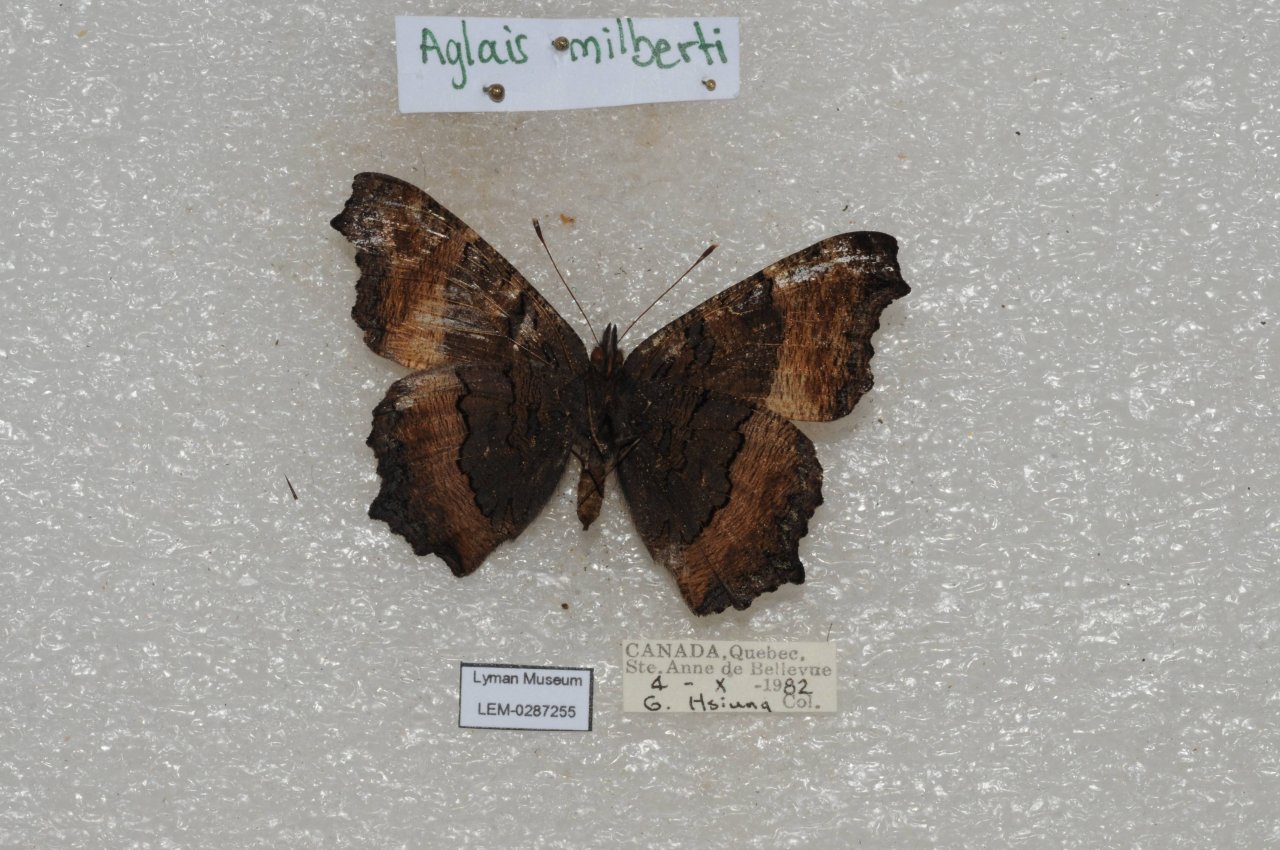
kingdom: Animalia
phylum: Arthropoda
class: Insecta
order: Lepidoptera
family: Nymphalidae
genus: Aglais
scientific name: Aglais milberti
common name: Milbert's Tortoiseshell
